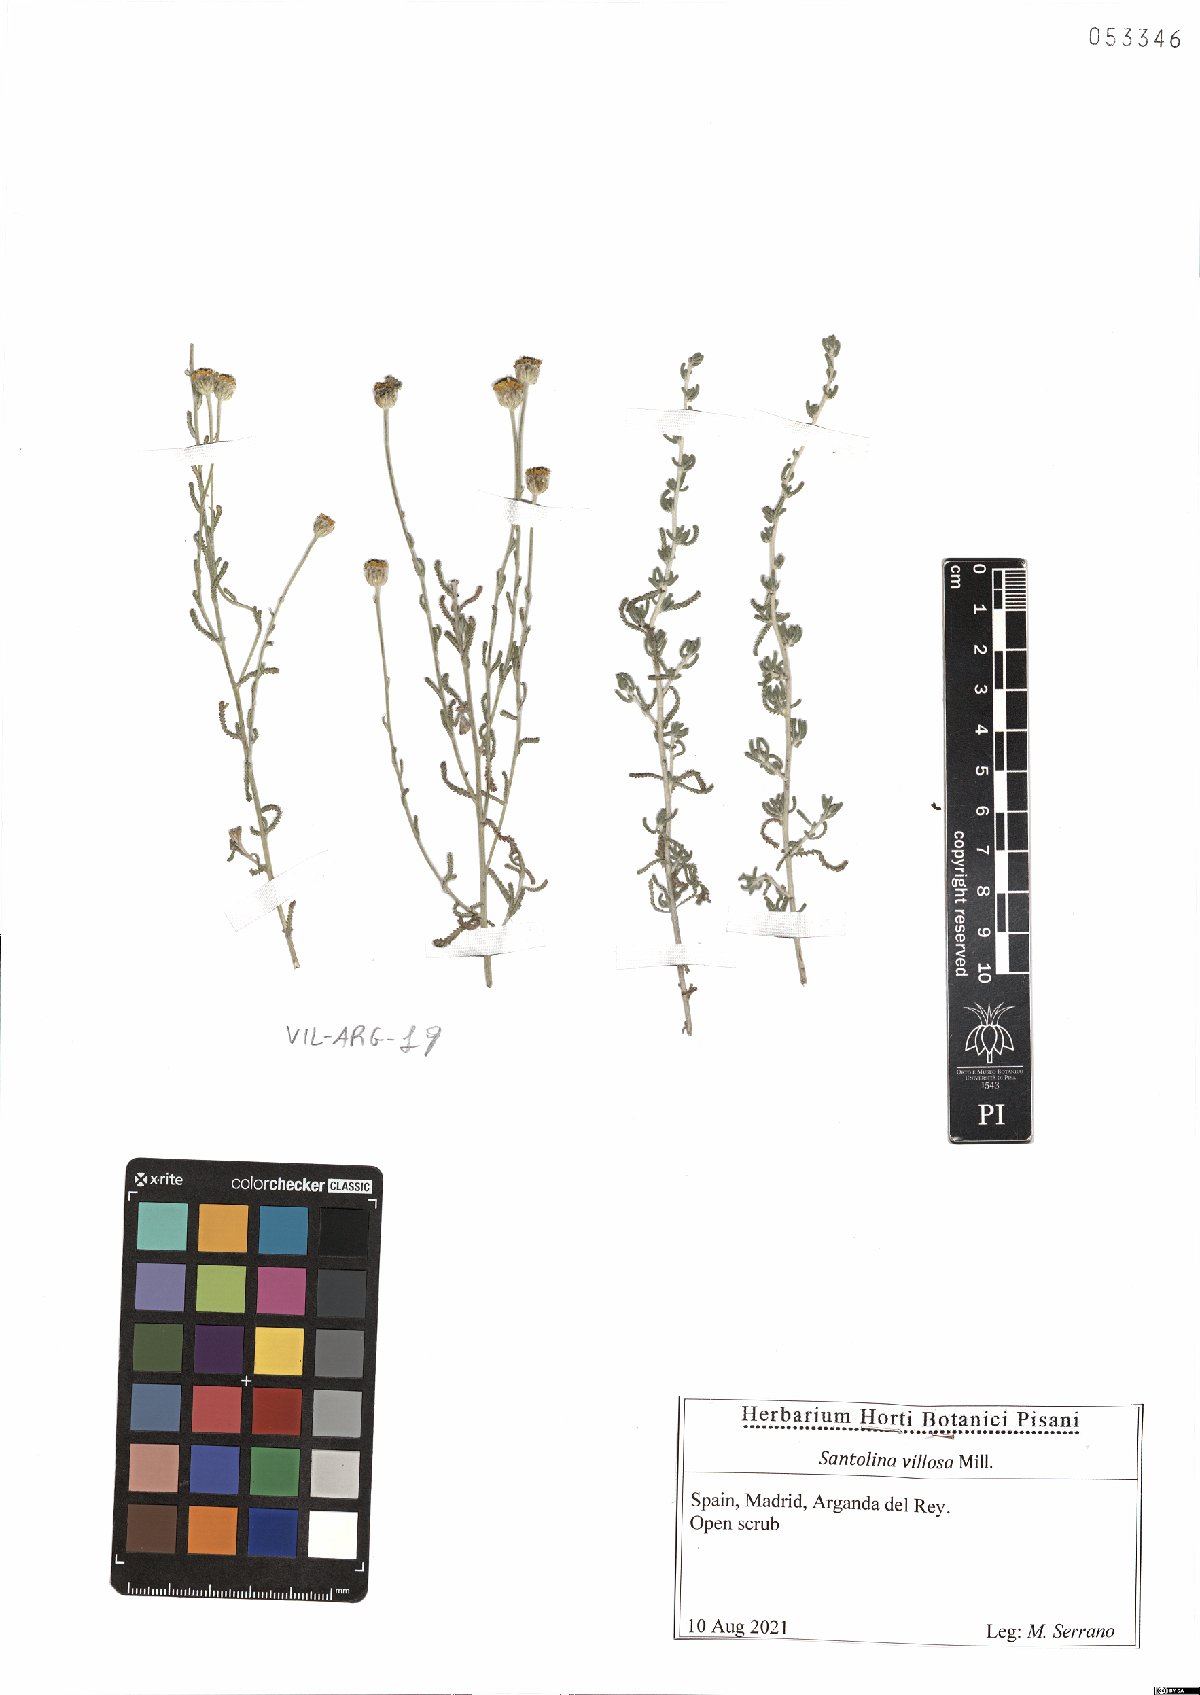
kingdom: Plantae
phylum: Tracheophyta
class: Magnoliopsida
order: Asterales
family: Asteraceae
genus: Santolina
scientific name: Santolina chamaecyparissus
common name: Lavender-cotton
